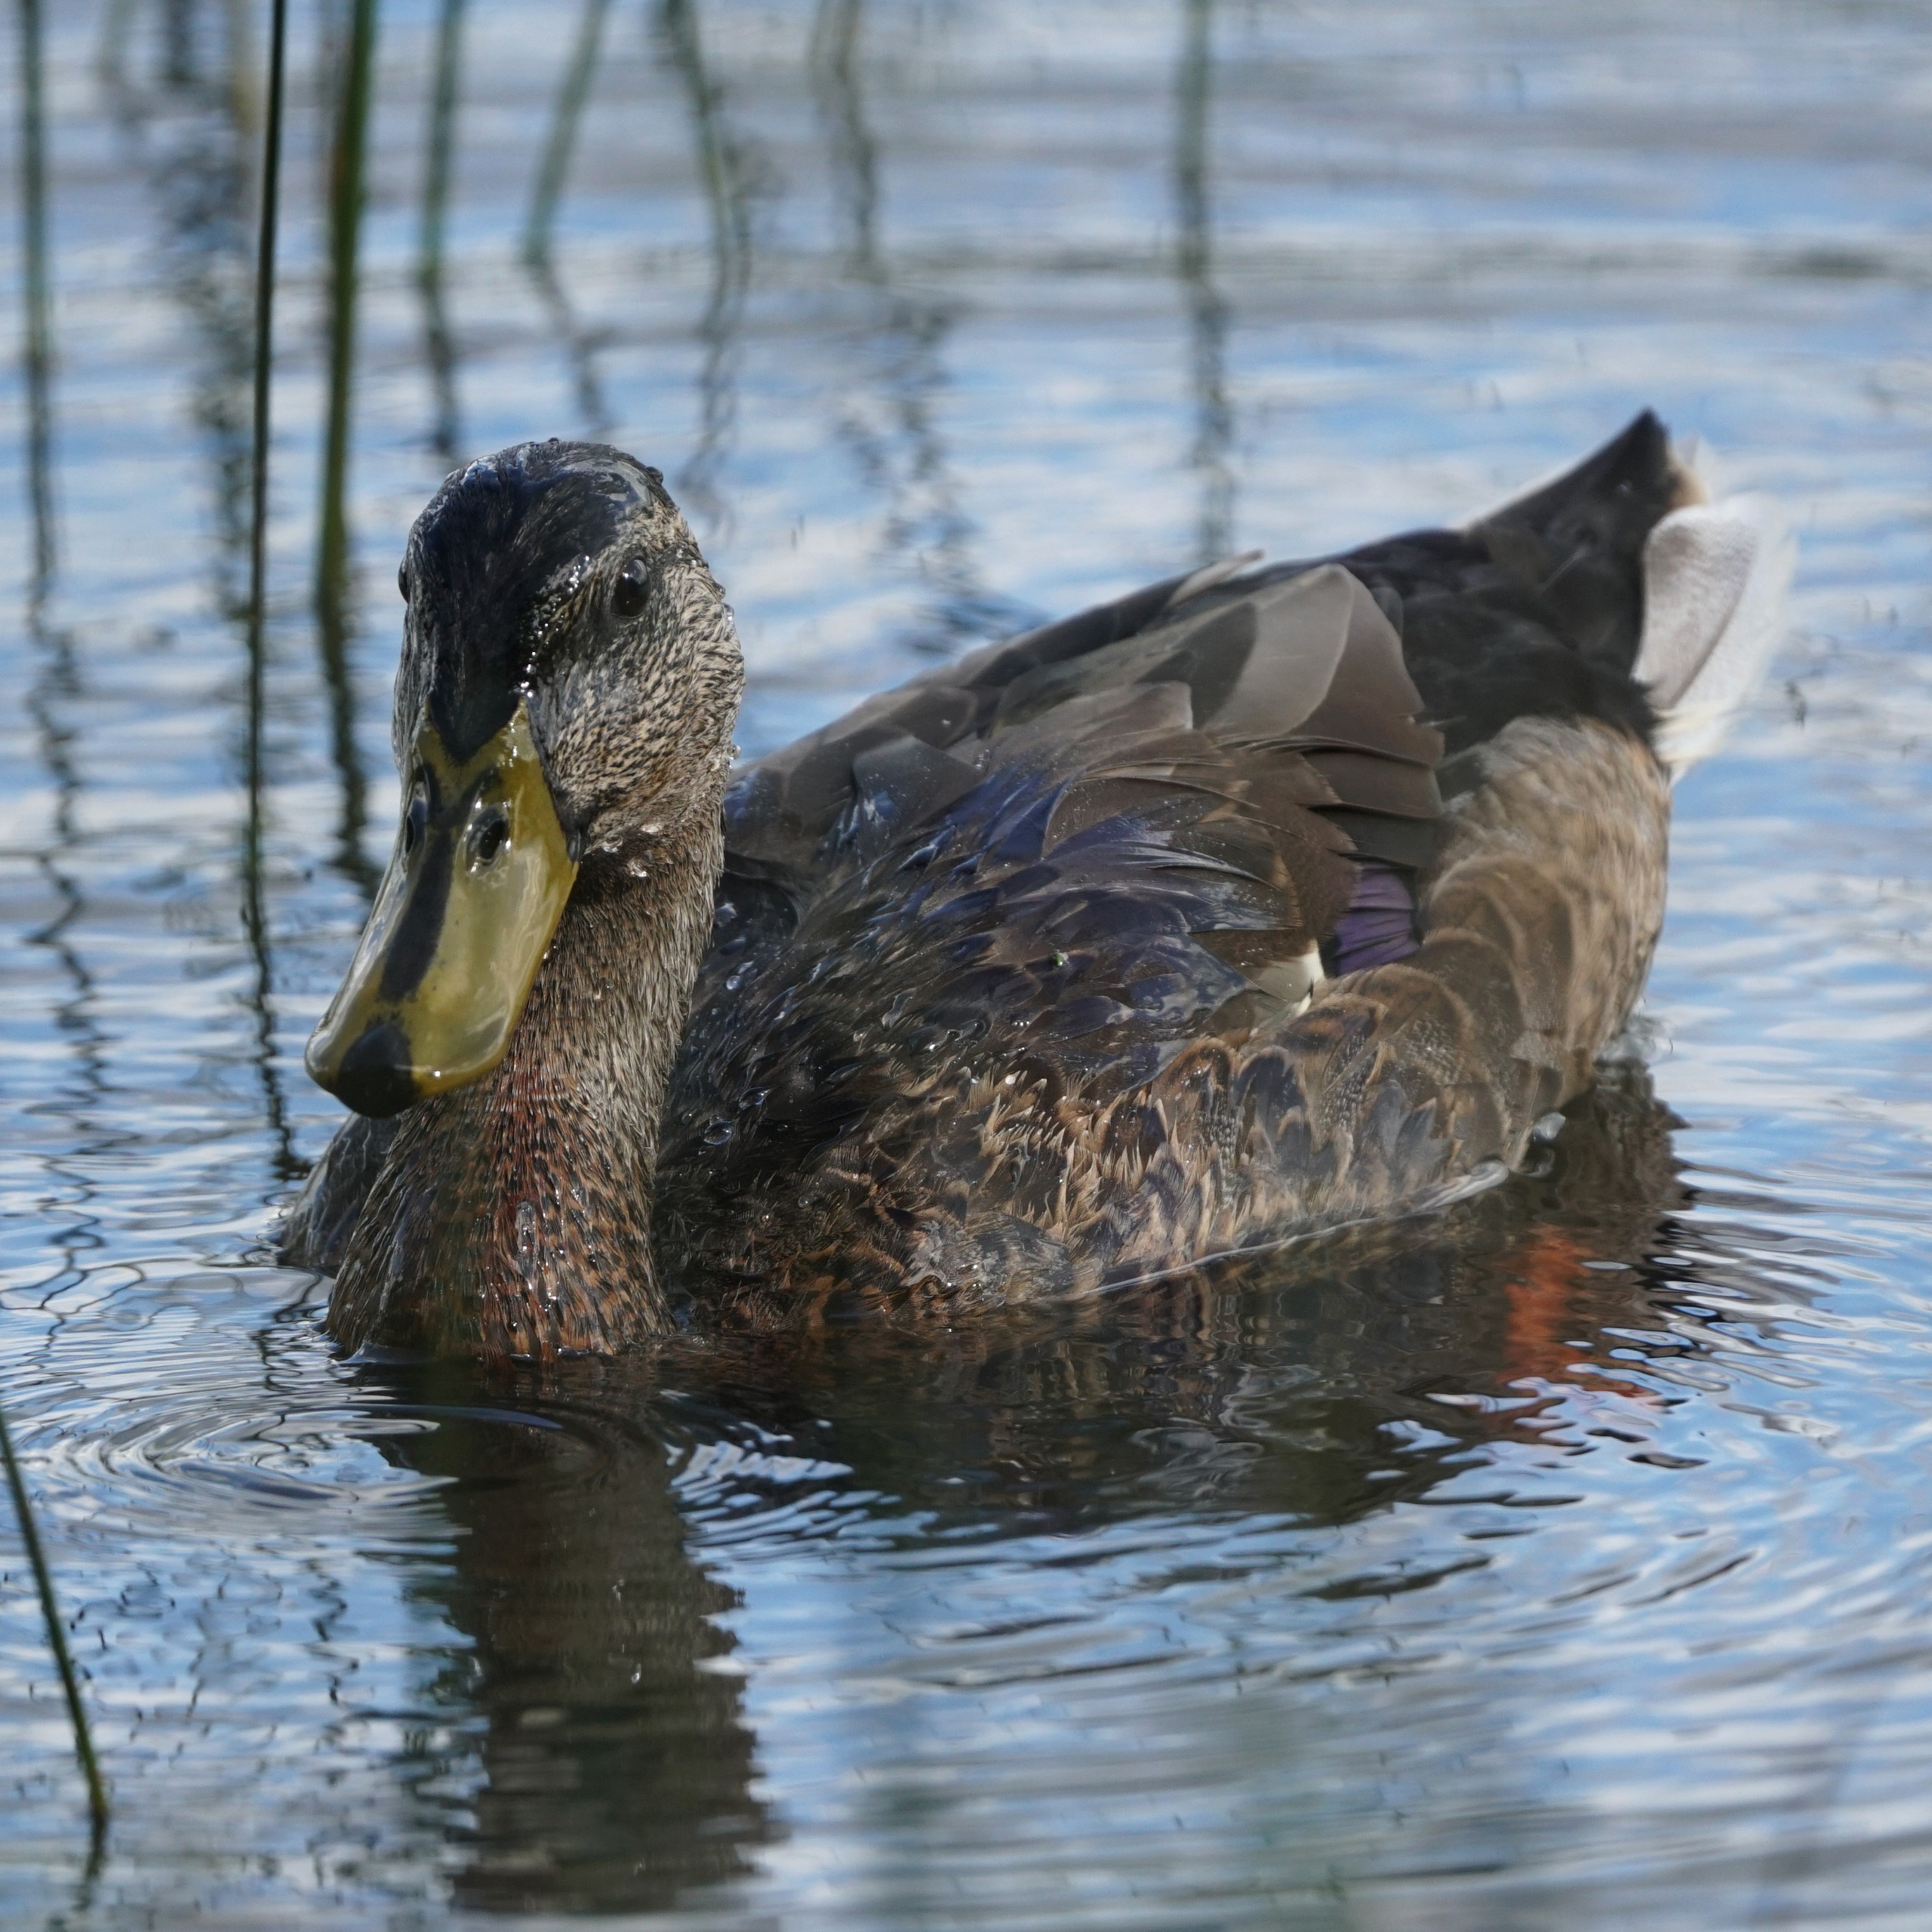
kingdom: Animalia
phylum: Chordata
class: Aves
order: Anseriformes
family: Anatidae
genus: Anas
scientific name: Anas platyrhynchos
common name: Gråand
